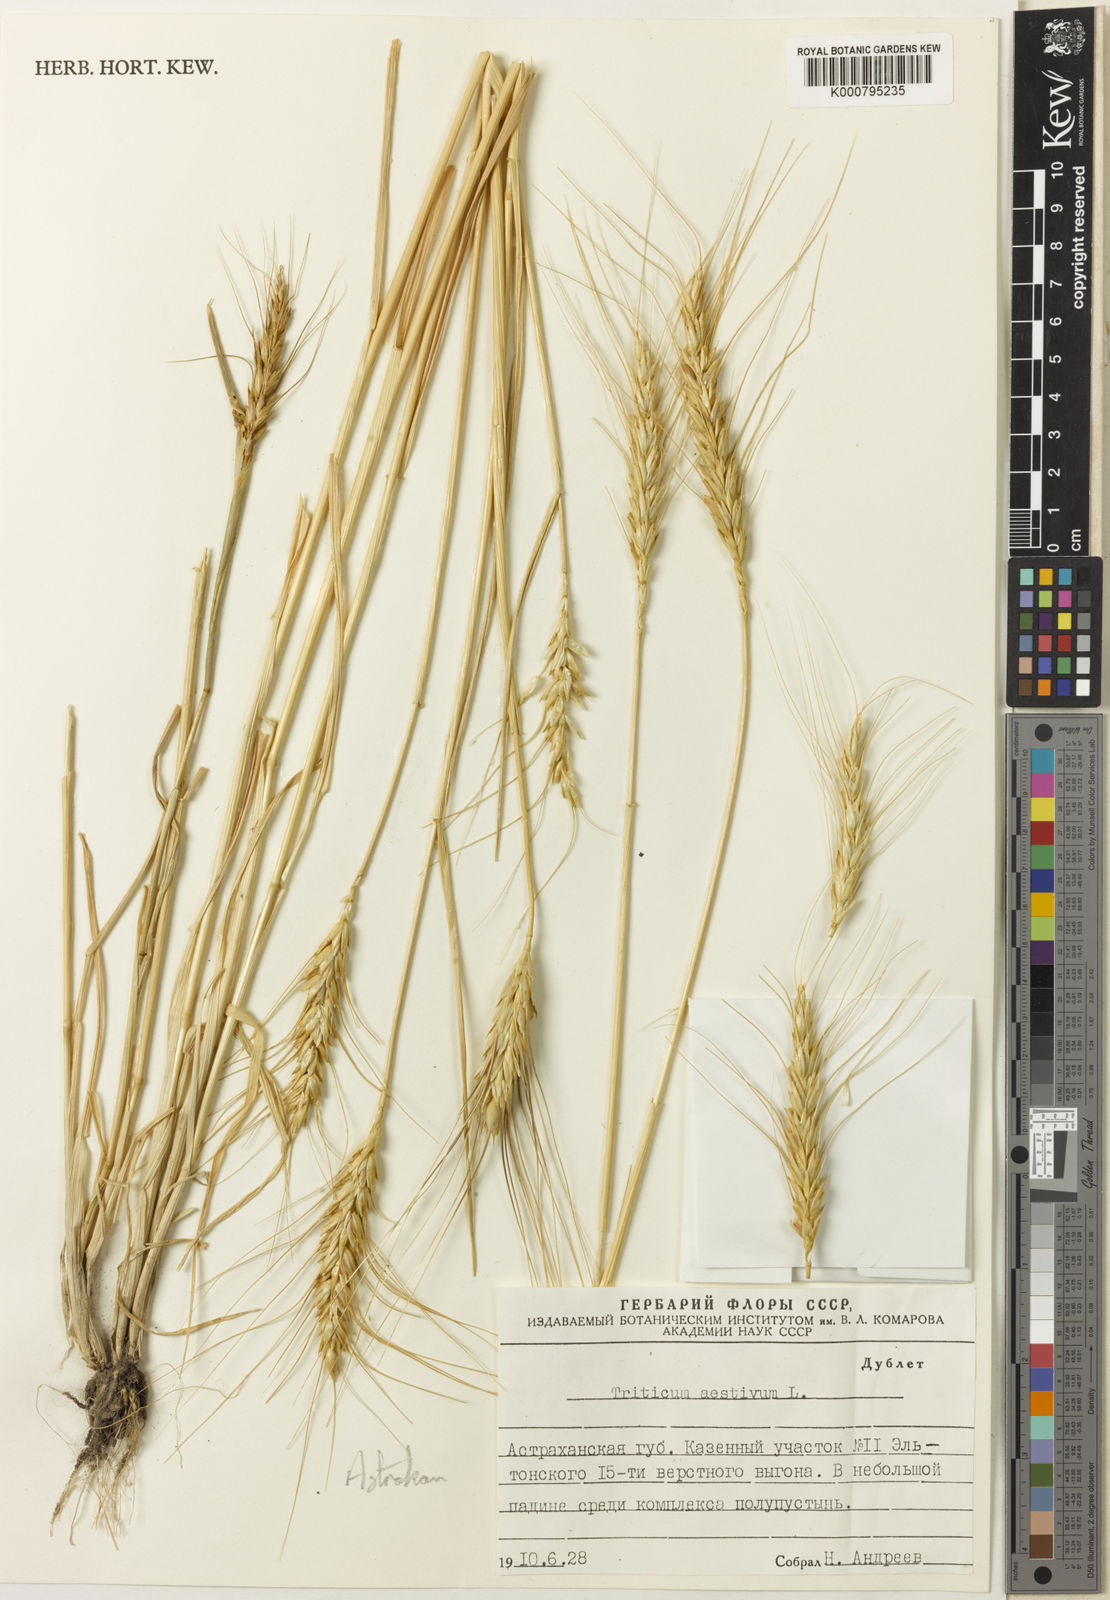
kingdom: Plantae
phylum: Tracheophyta
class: Liliopsida
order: Poales
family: Poaceae
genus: Triticum
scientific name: Triticum
